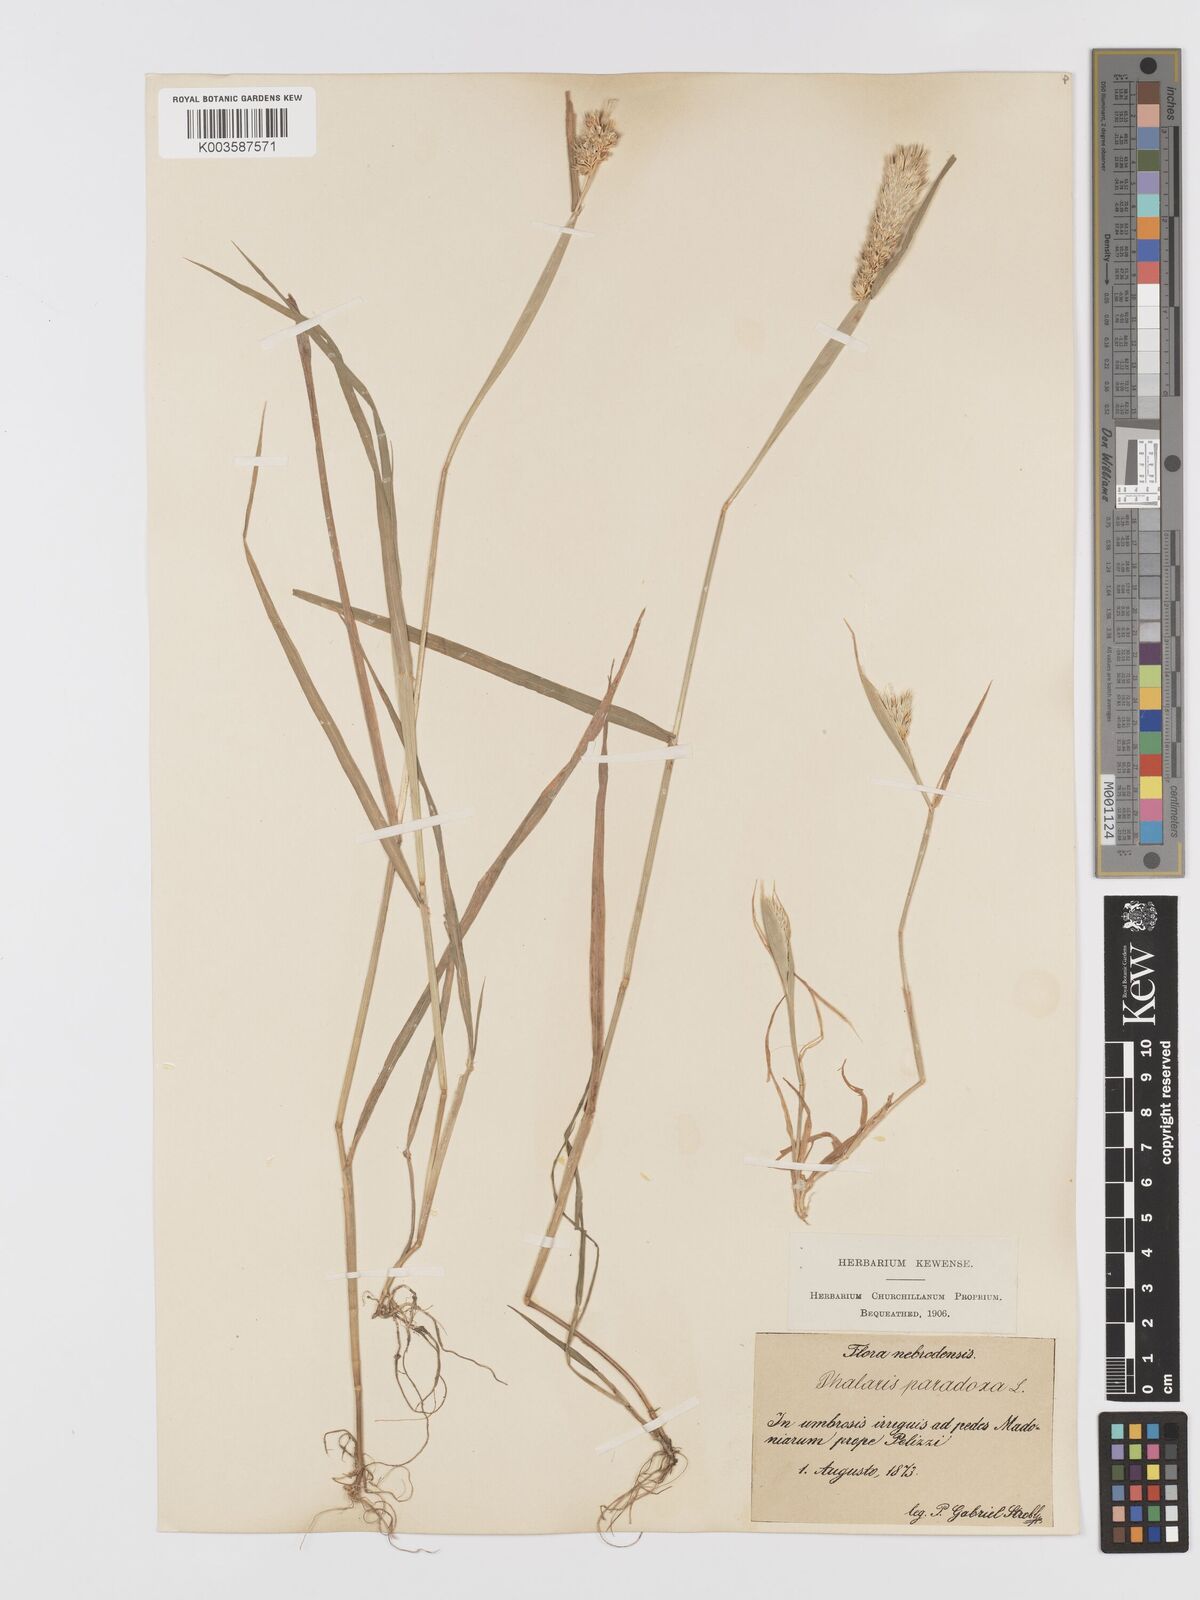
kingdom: Plantae
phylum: Tracheophyta
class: Liliopsida
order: Poales
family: Poaceae
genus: Phalaris
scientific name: Phalaris paradoxa
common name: Awned canary-grass
